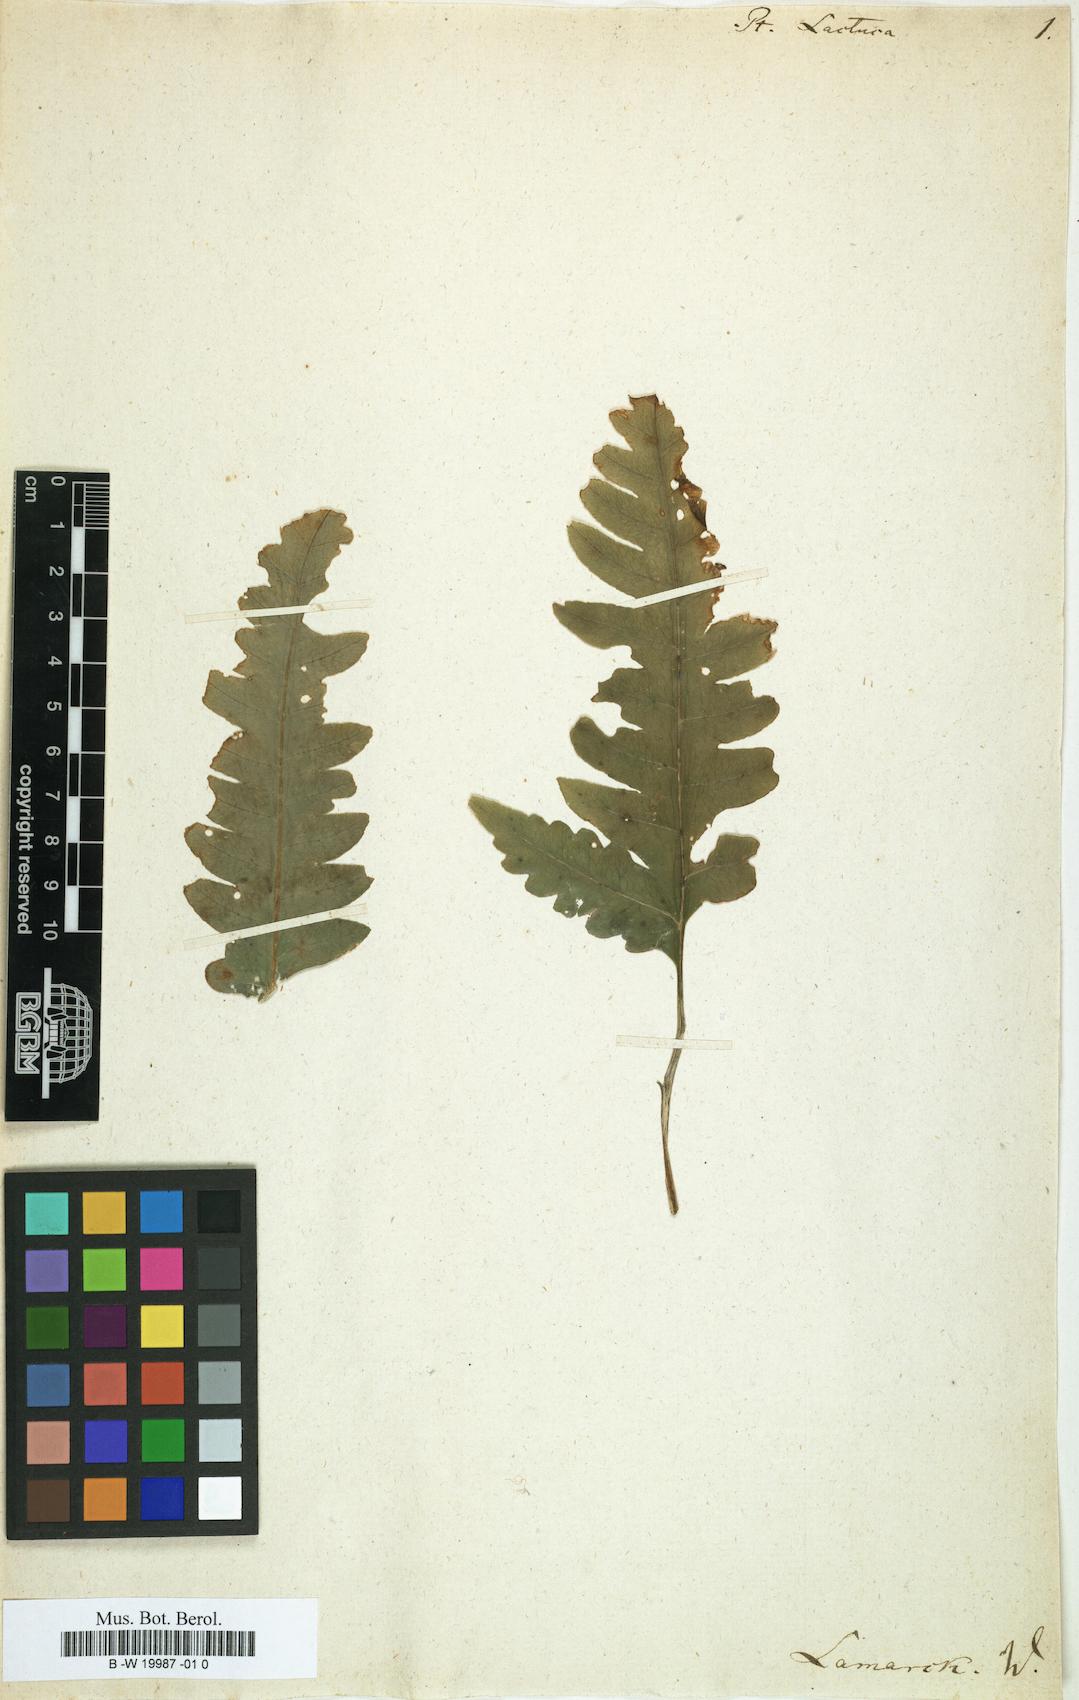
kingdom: Plantae
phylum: Tracheophyta
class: Polypodiopsida
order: Polypodiales
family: Pteridaceae
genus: Pteris
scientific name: Pteris arborea
